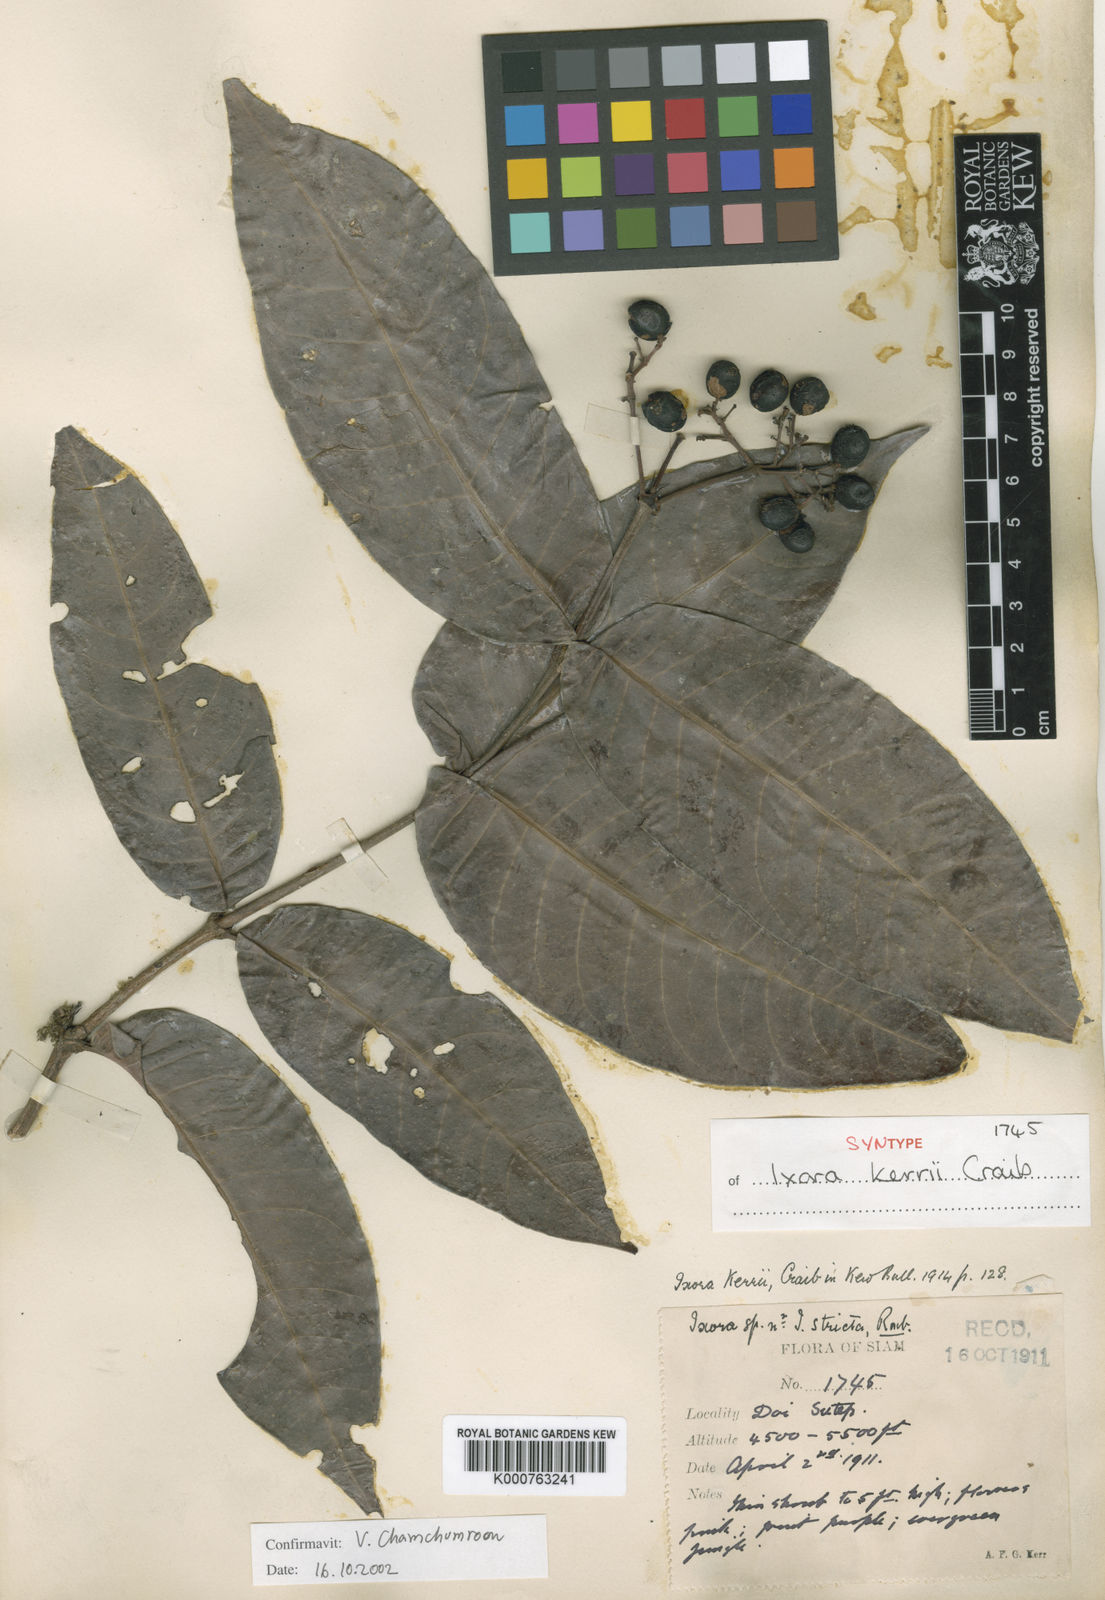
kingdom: Plantae
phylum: Tracheophyta
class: Magnoliopsida
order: Gentianales
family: Rubiaceae
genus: Ixora
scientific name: Ixora kerrii
